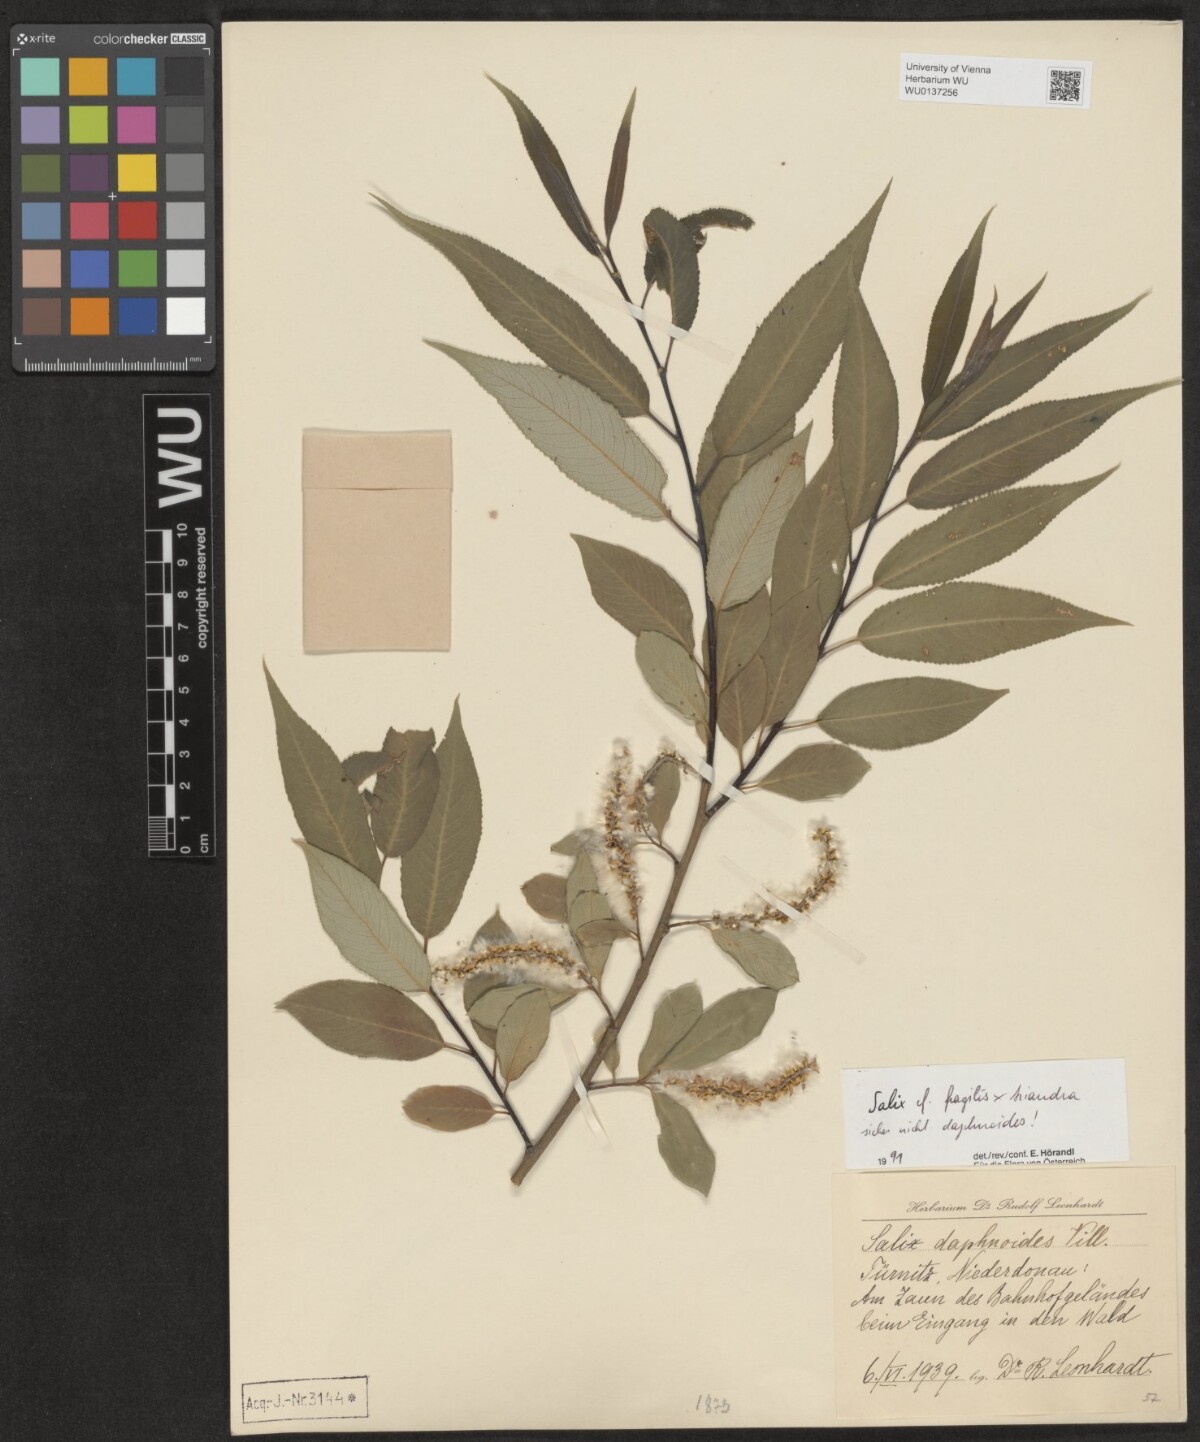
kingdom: Plantae
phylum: Tracheophyta
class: Magnoliopsida
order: Malpighiales
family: Salicaceae
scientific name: Salicaceae
